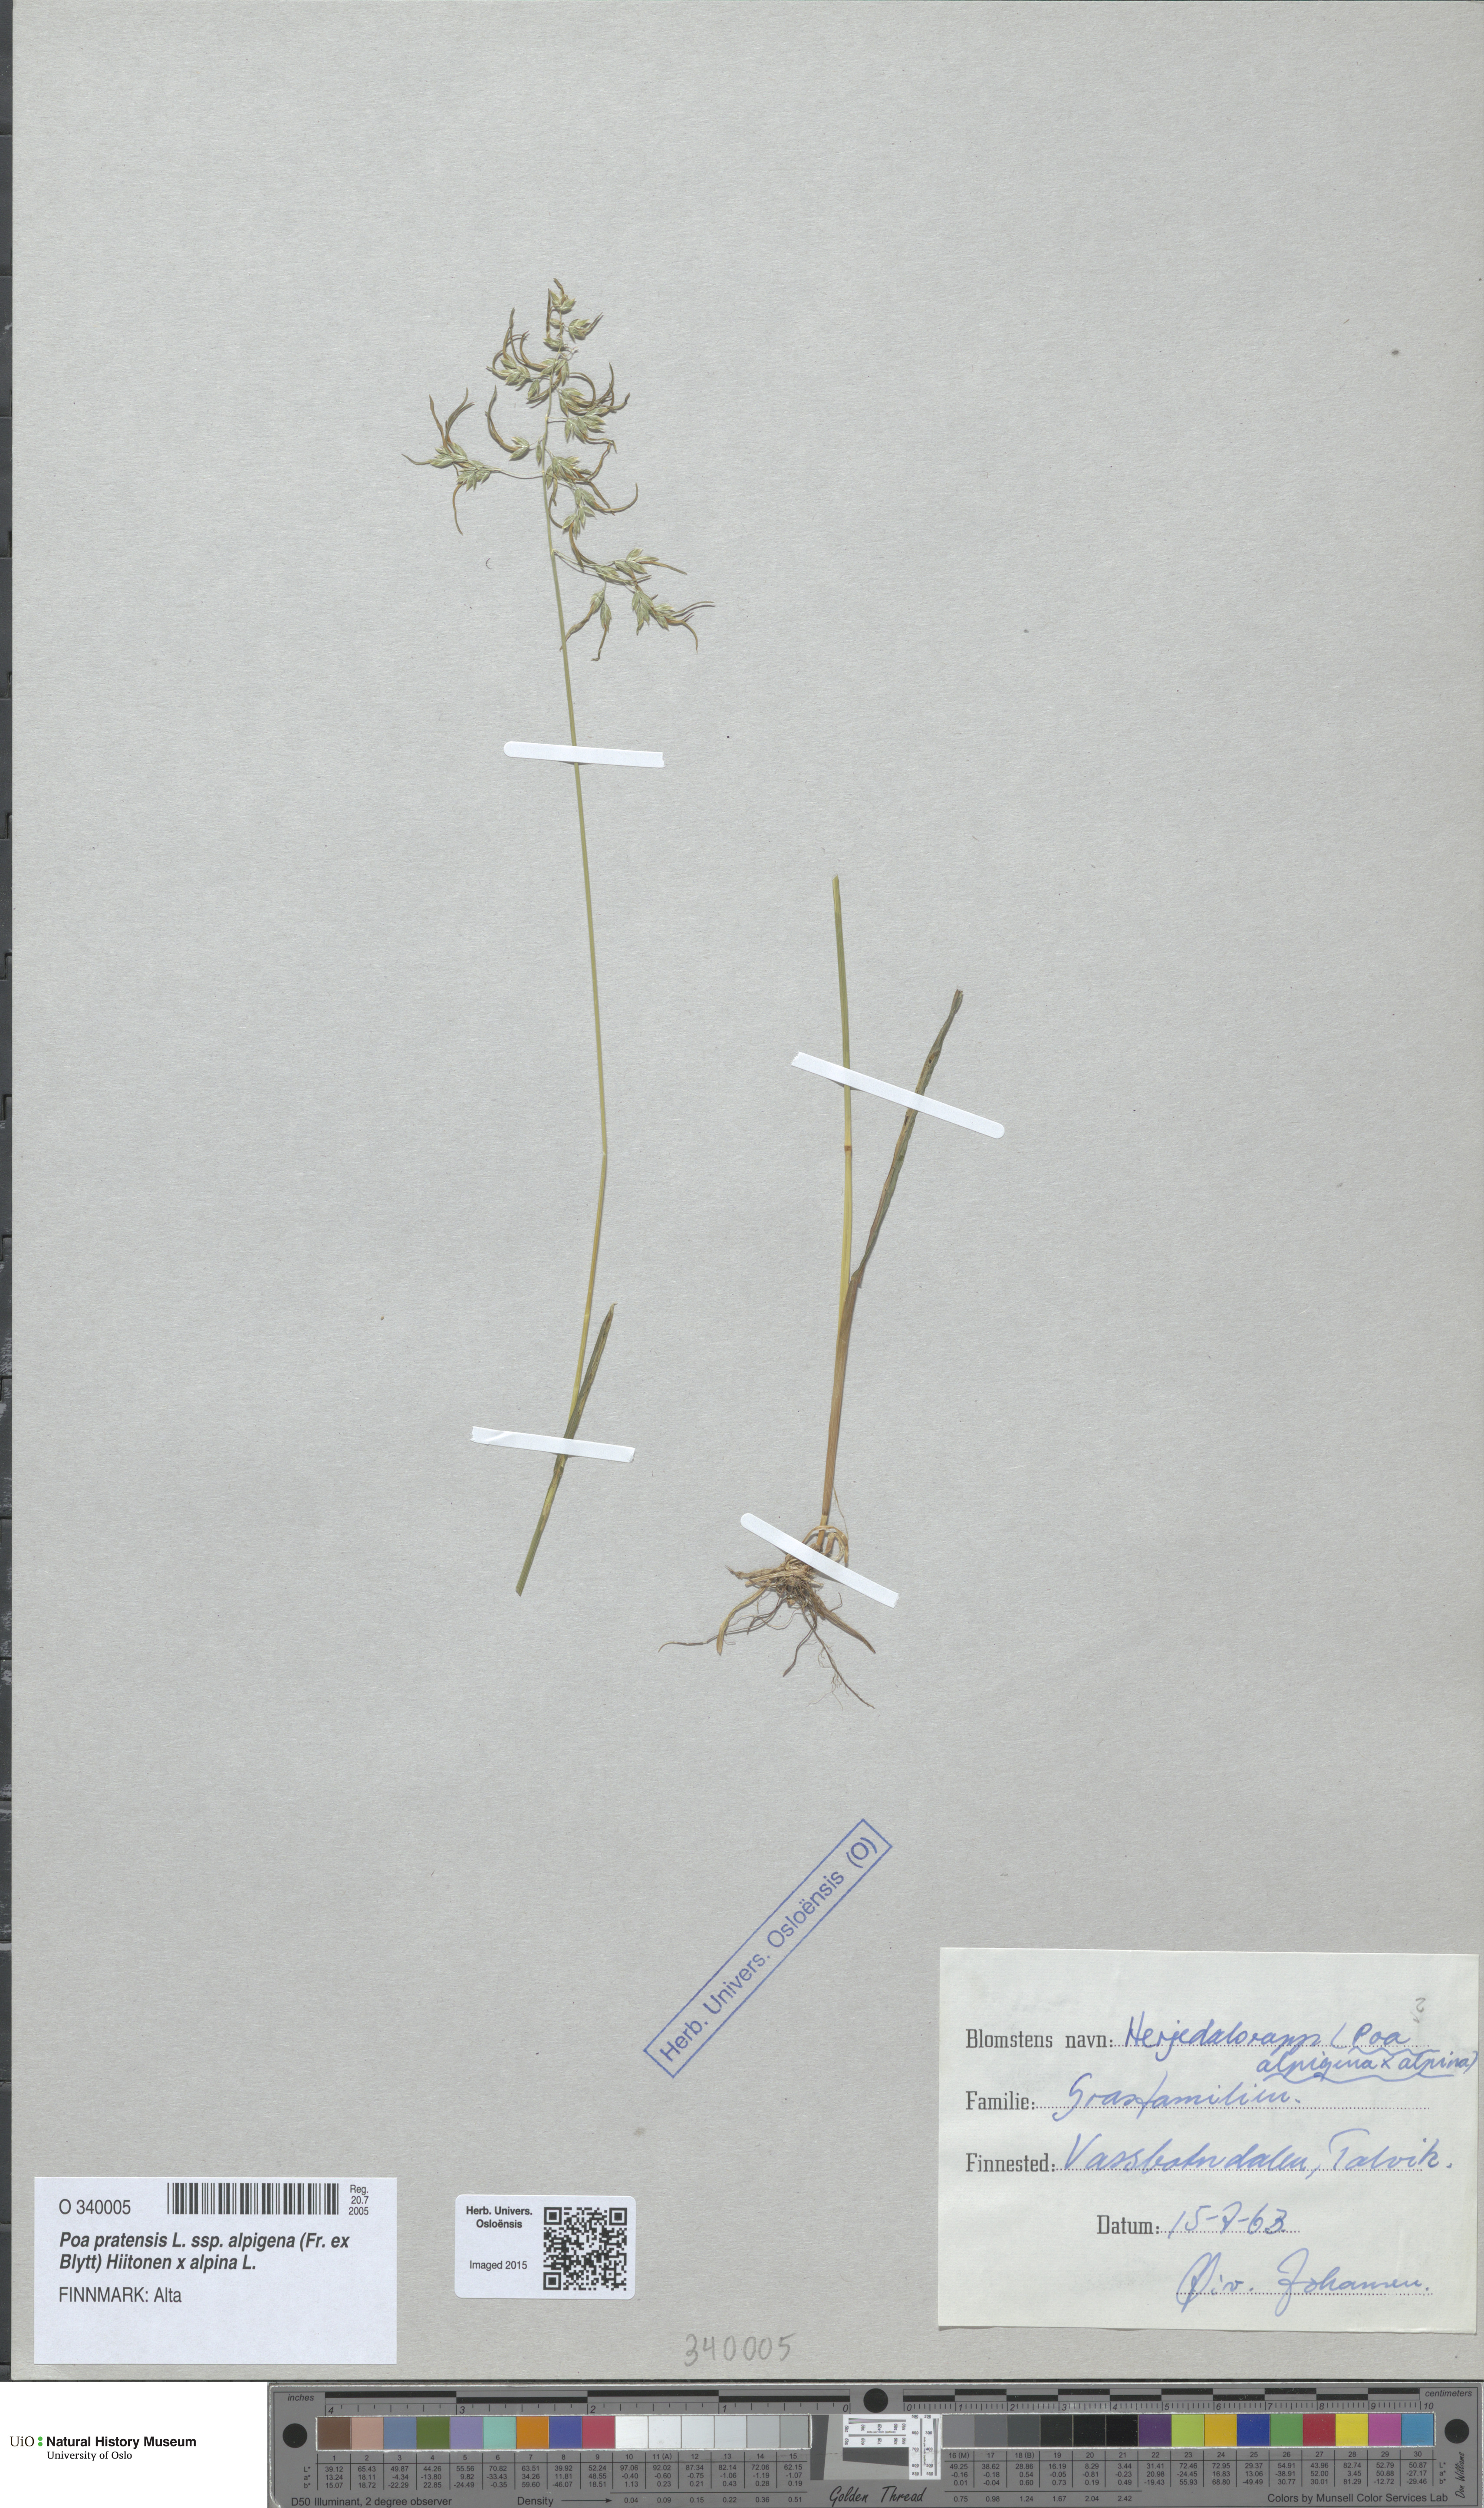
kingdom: Plantae
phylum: Tracheophyta
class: Liliopsida
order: Poales
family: Poaceae
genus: Poa
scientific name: Poa
